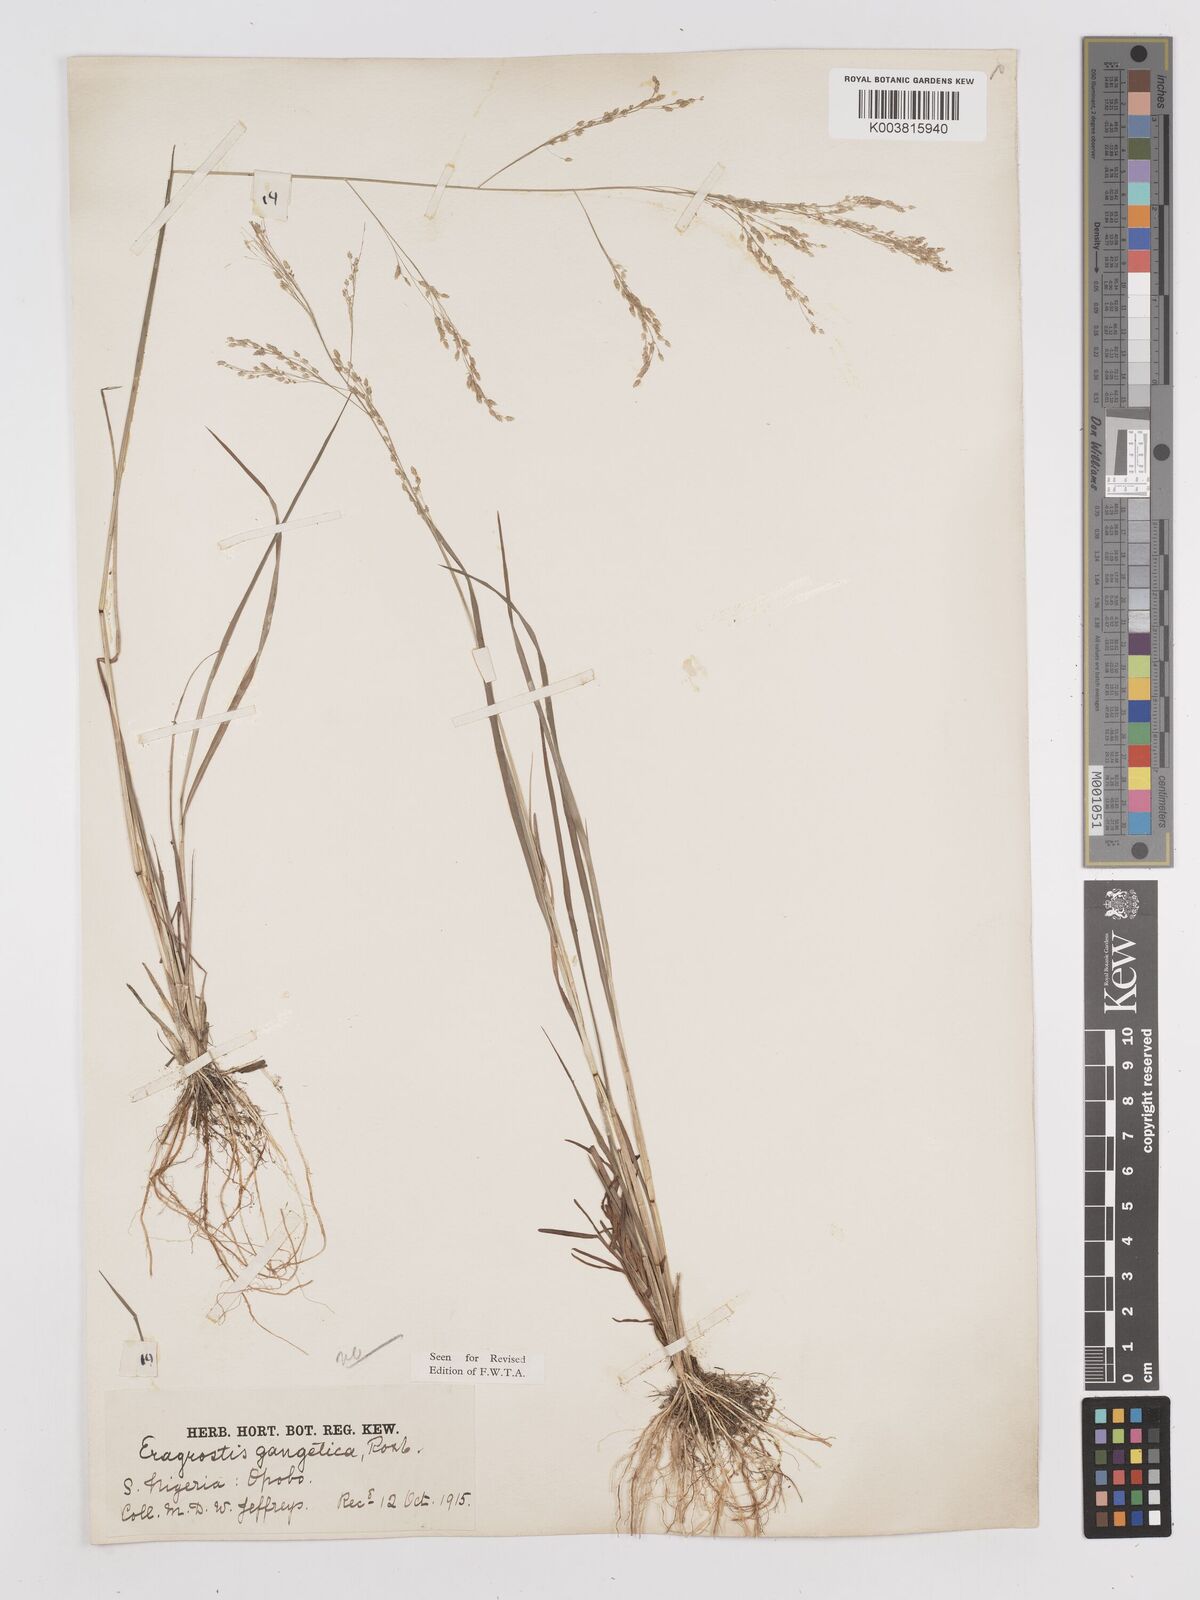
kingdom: Plantae
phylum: Tracheophyta
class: Liliopsida
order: Poales
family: Poaceae
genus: Eragrostis
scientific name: Eragrostis gangetica
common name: Slimflower lovegrass
